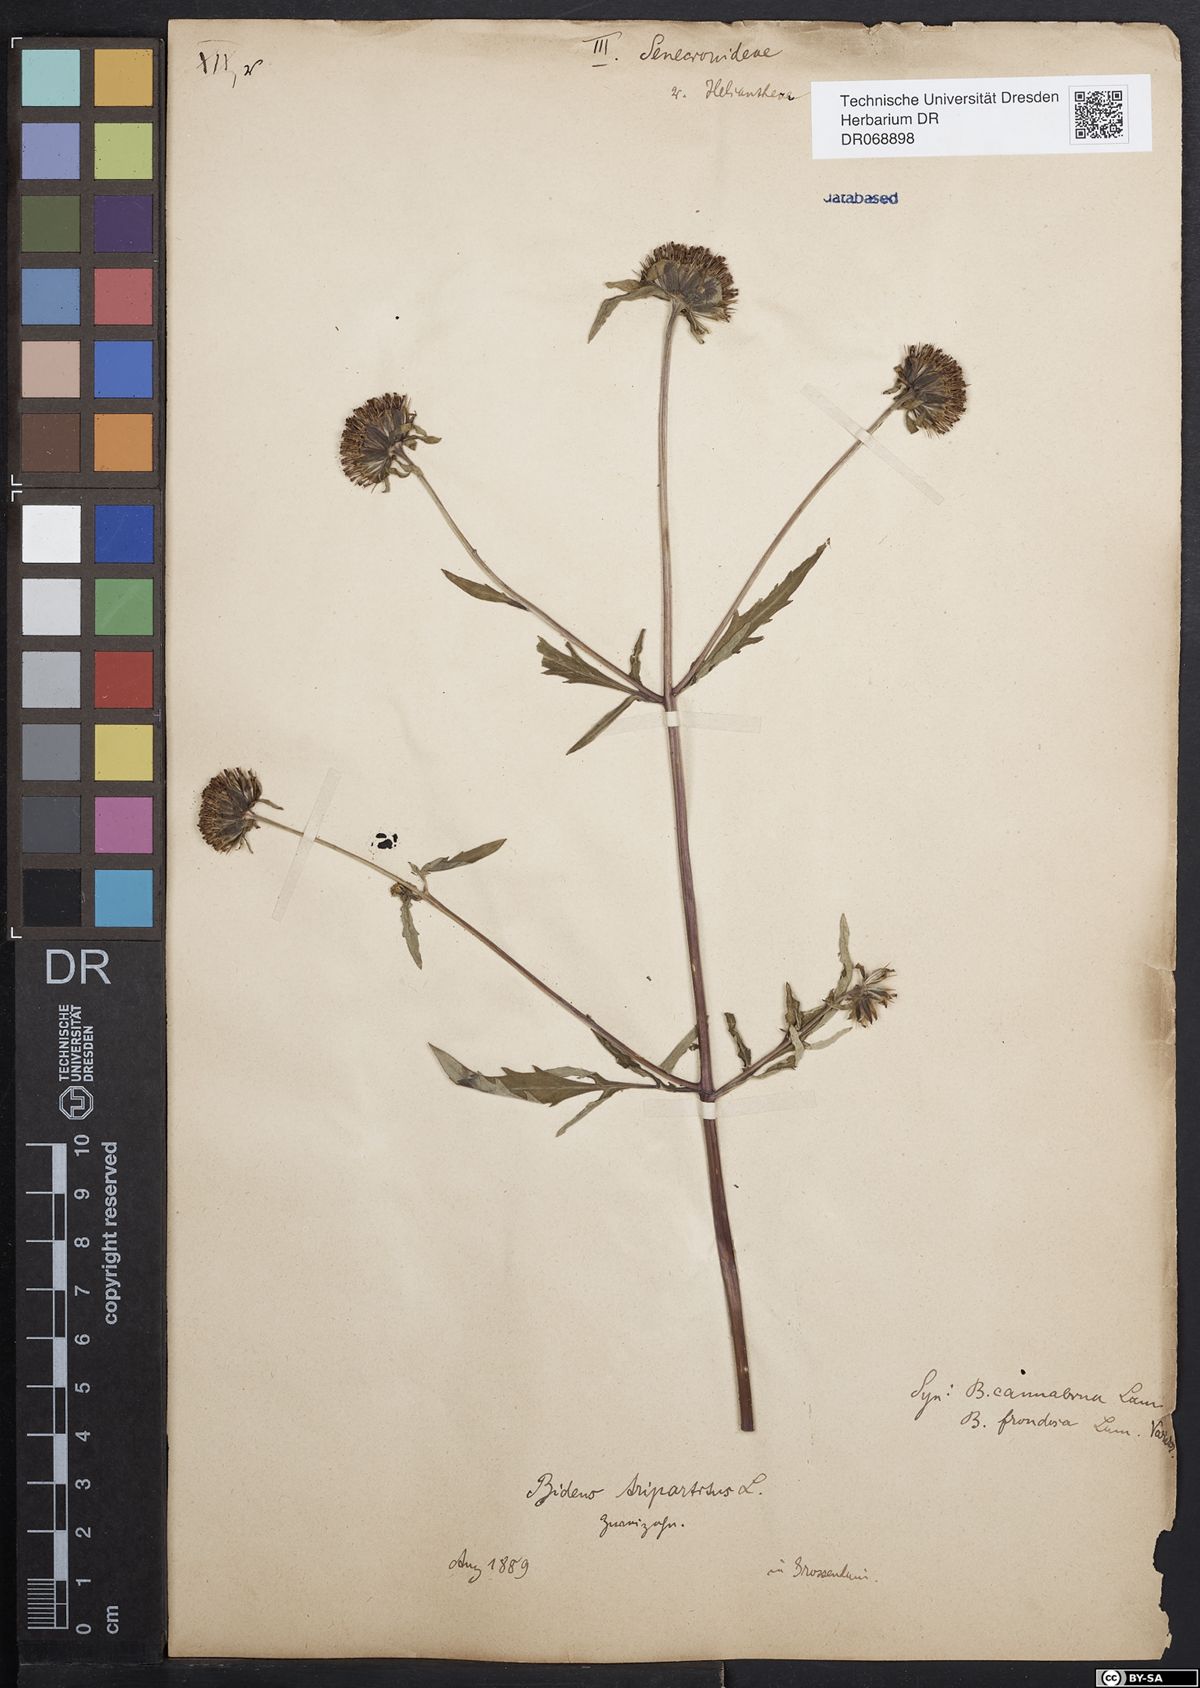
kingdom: Plantae
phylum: Tracheophyta
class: Magnoliopsida
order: Asterales
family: Asteraceae
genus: Bidens
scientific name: Bidens tripartita
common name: Trifid bur-marigold
